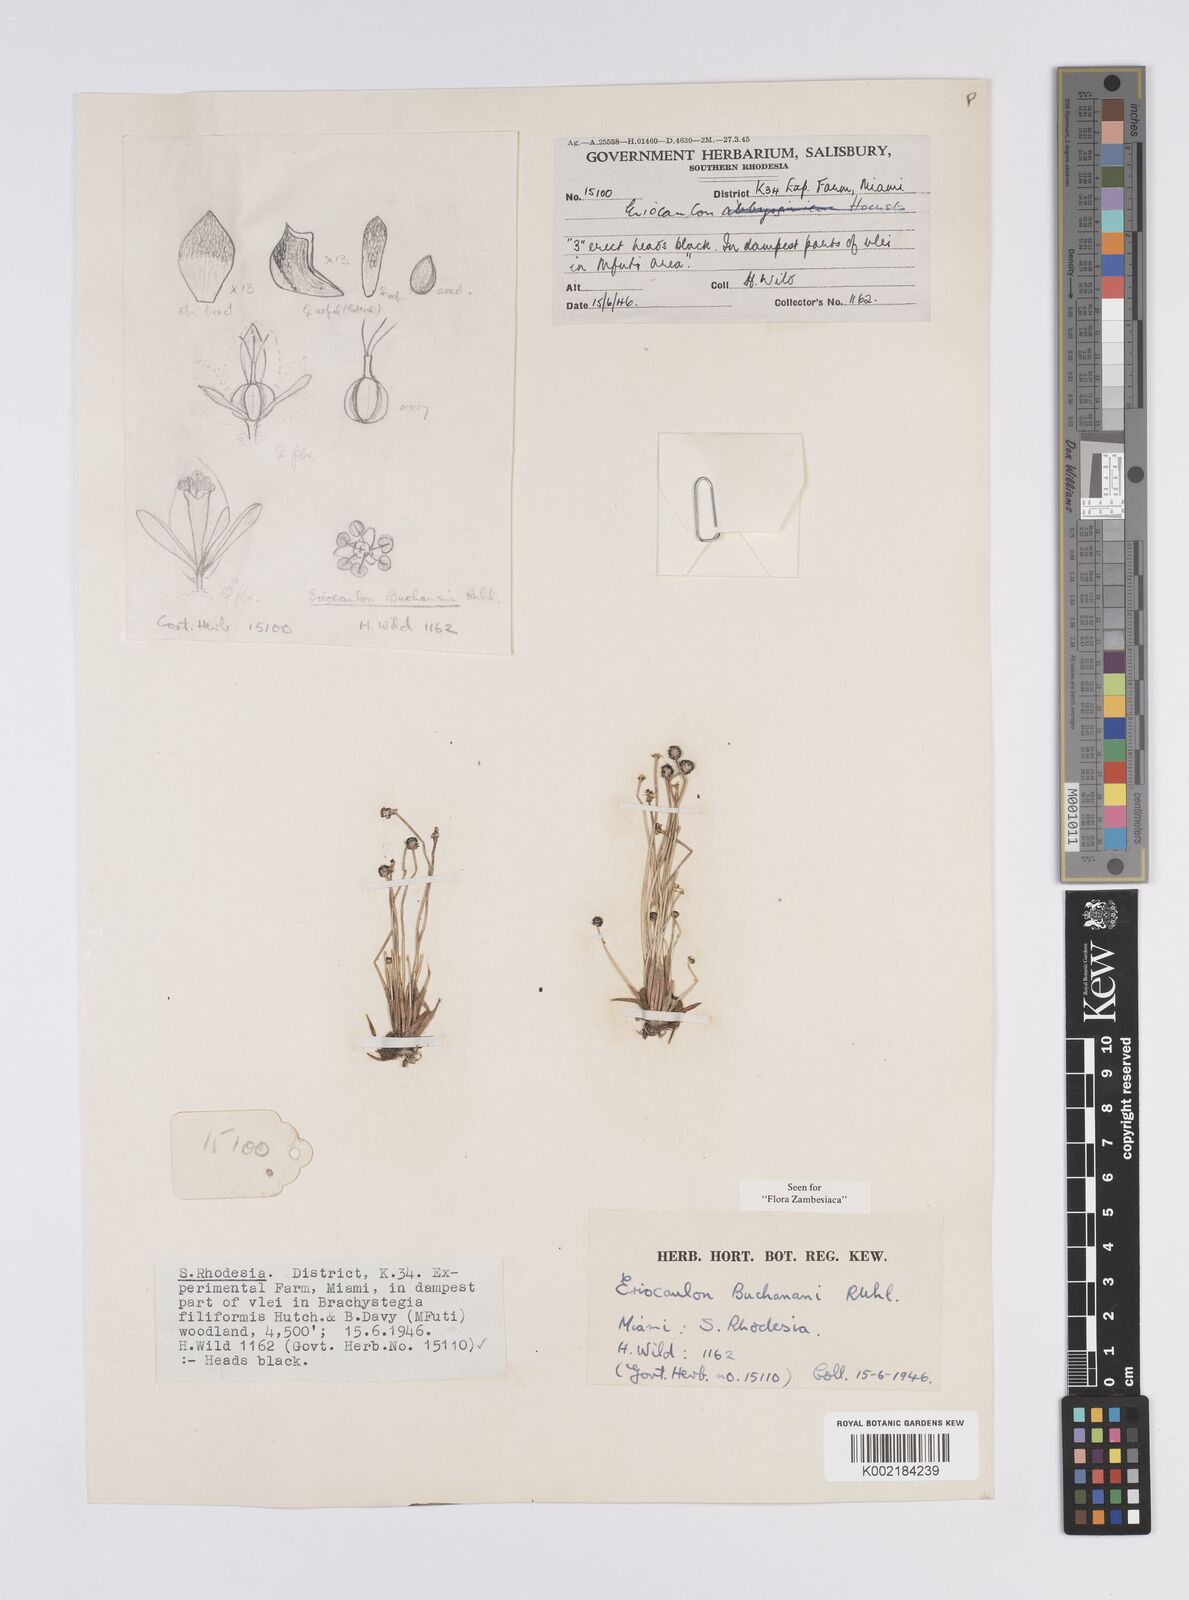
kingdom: Plantae
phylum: Tracheophyta
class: Liliopsida
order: Poales
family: Eriocaulaceae
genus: Eriocaulon
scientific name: Eriocaulon buchananii
